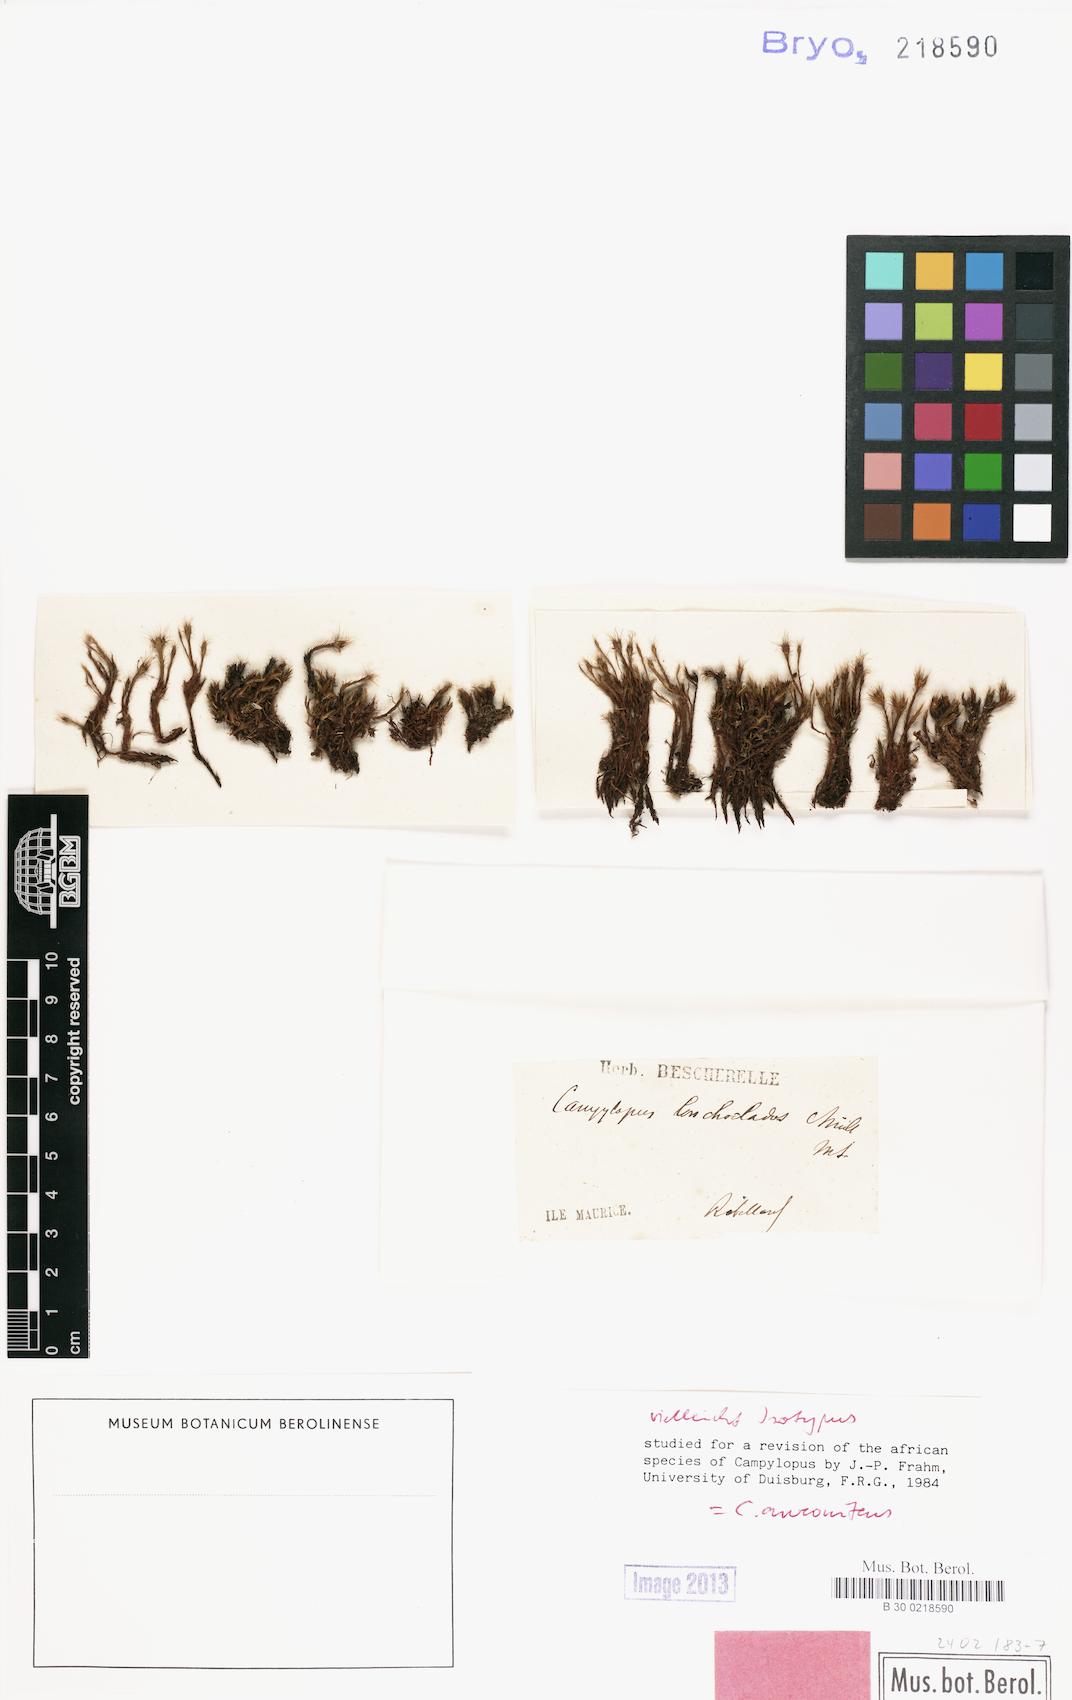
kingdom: Plantae
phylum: Bryophyta
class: Bryopsida
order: Dicranales
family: Leucobryaceae
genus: Campylopus
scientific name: Campylopus aureonitens
